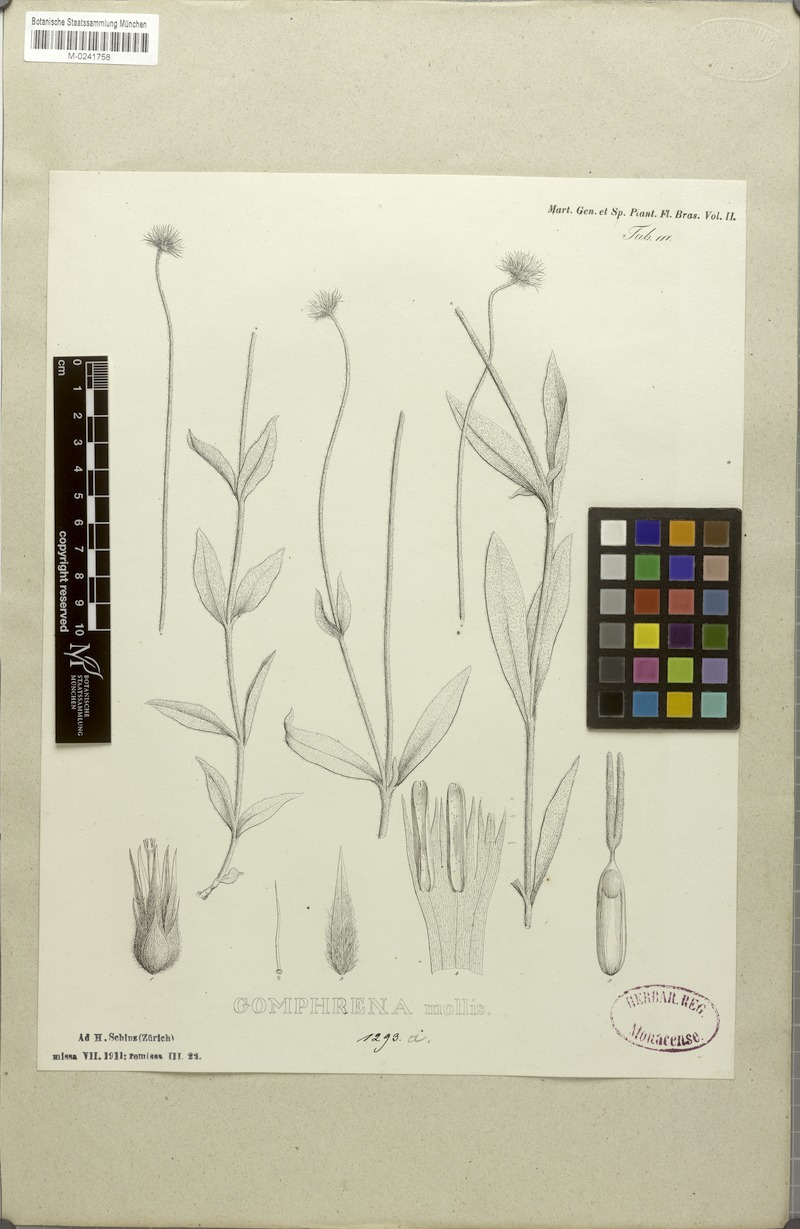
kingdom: Plantae
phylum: Tracheophyta
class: Magnoliopsida
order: Caryophyllales
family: Amaranthaceae
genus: Gomphrena
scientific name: Gomphrena mollis
